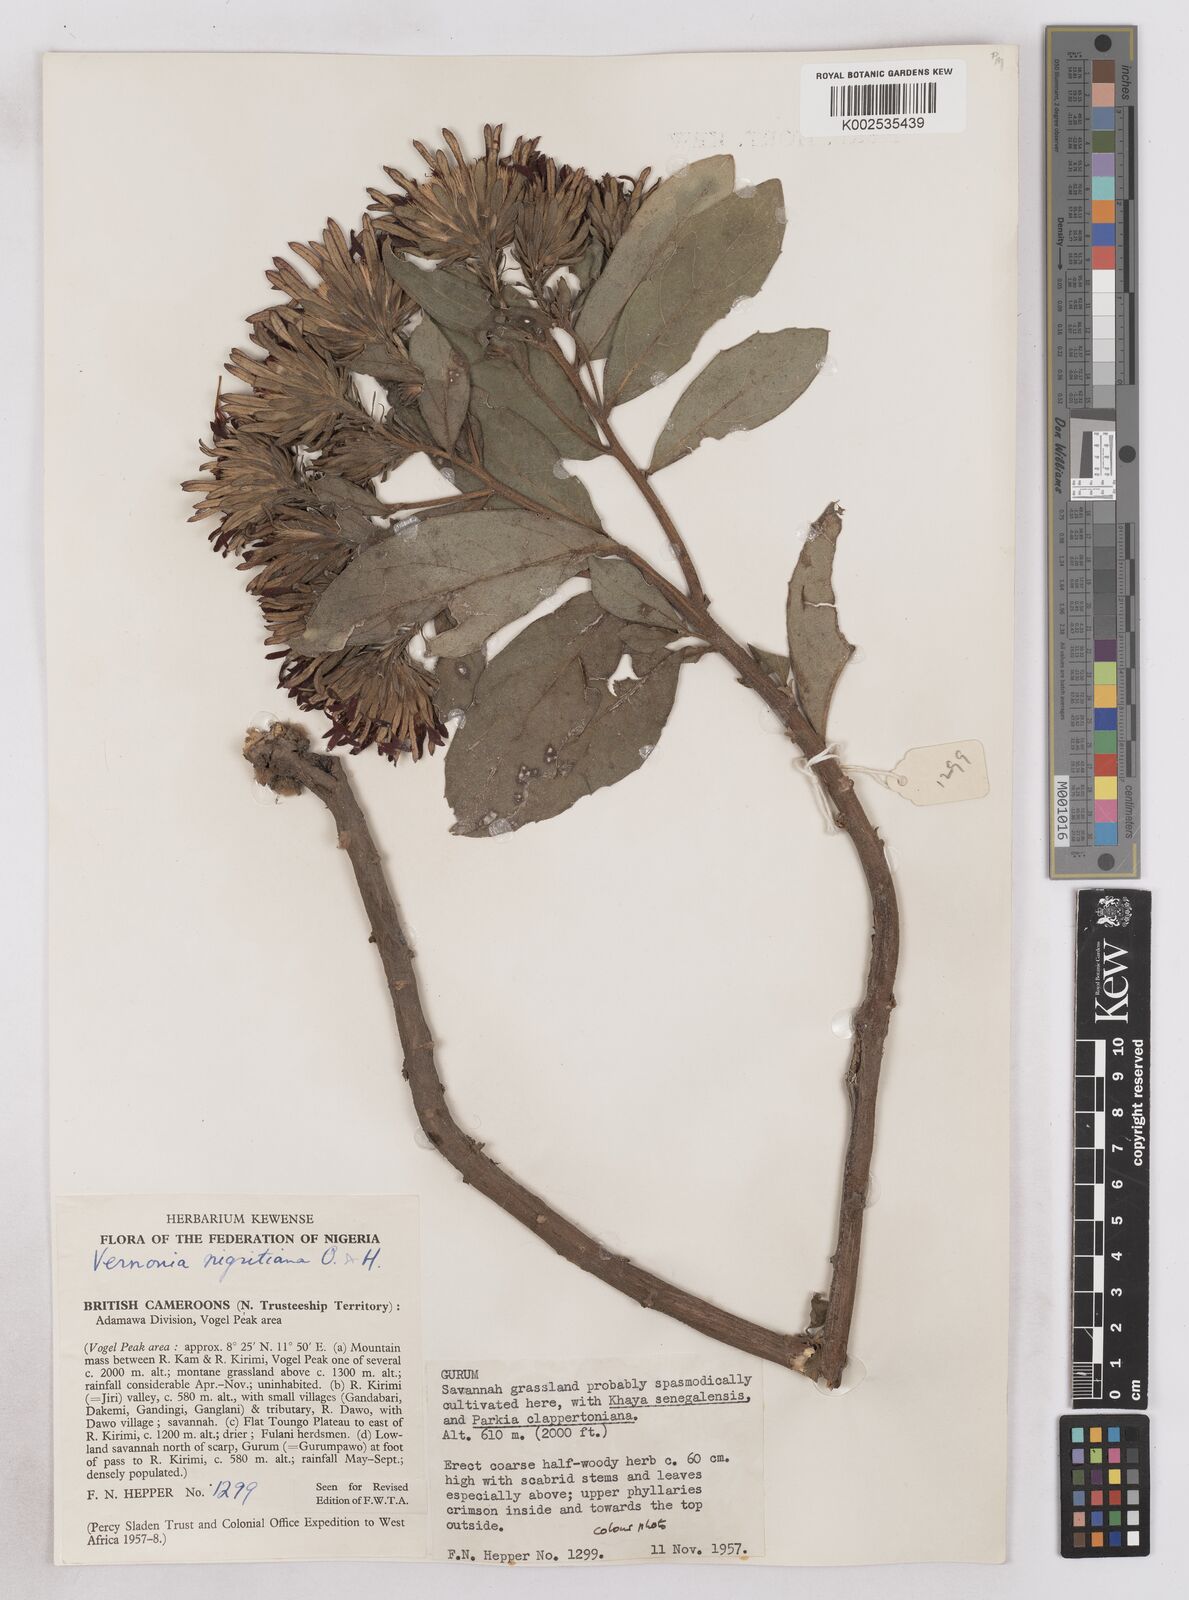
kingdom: Plantae
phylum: Tracheophyta
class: Magnoliopsida
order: Asterales
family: Asteraceae
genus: Linzia
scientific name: Linzia nigritiana
